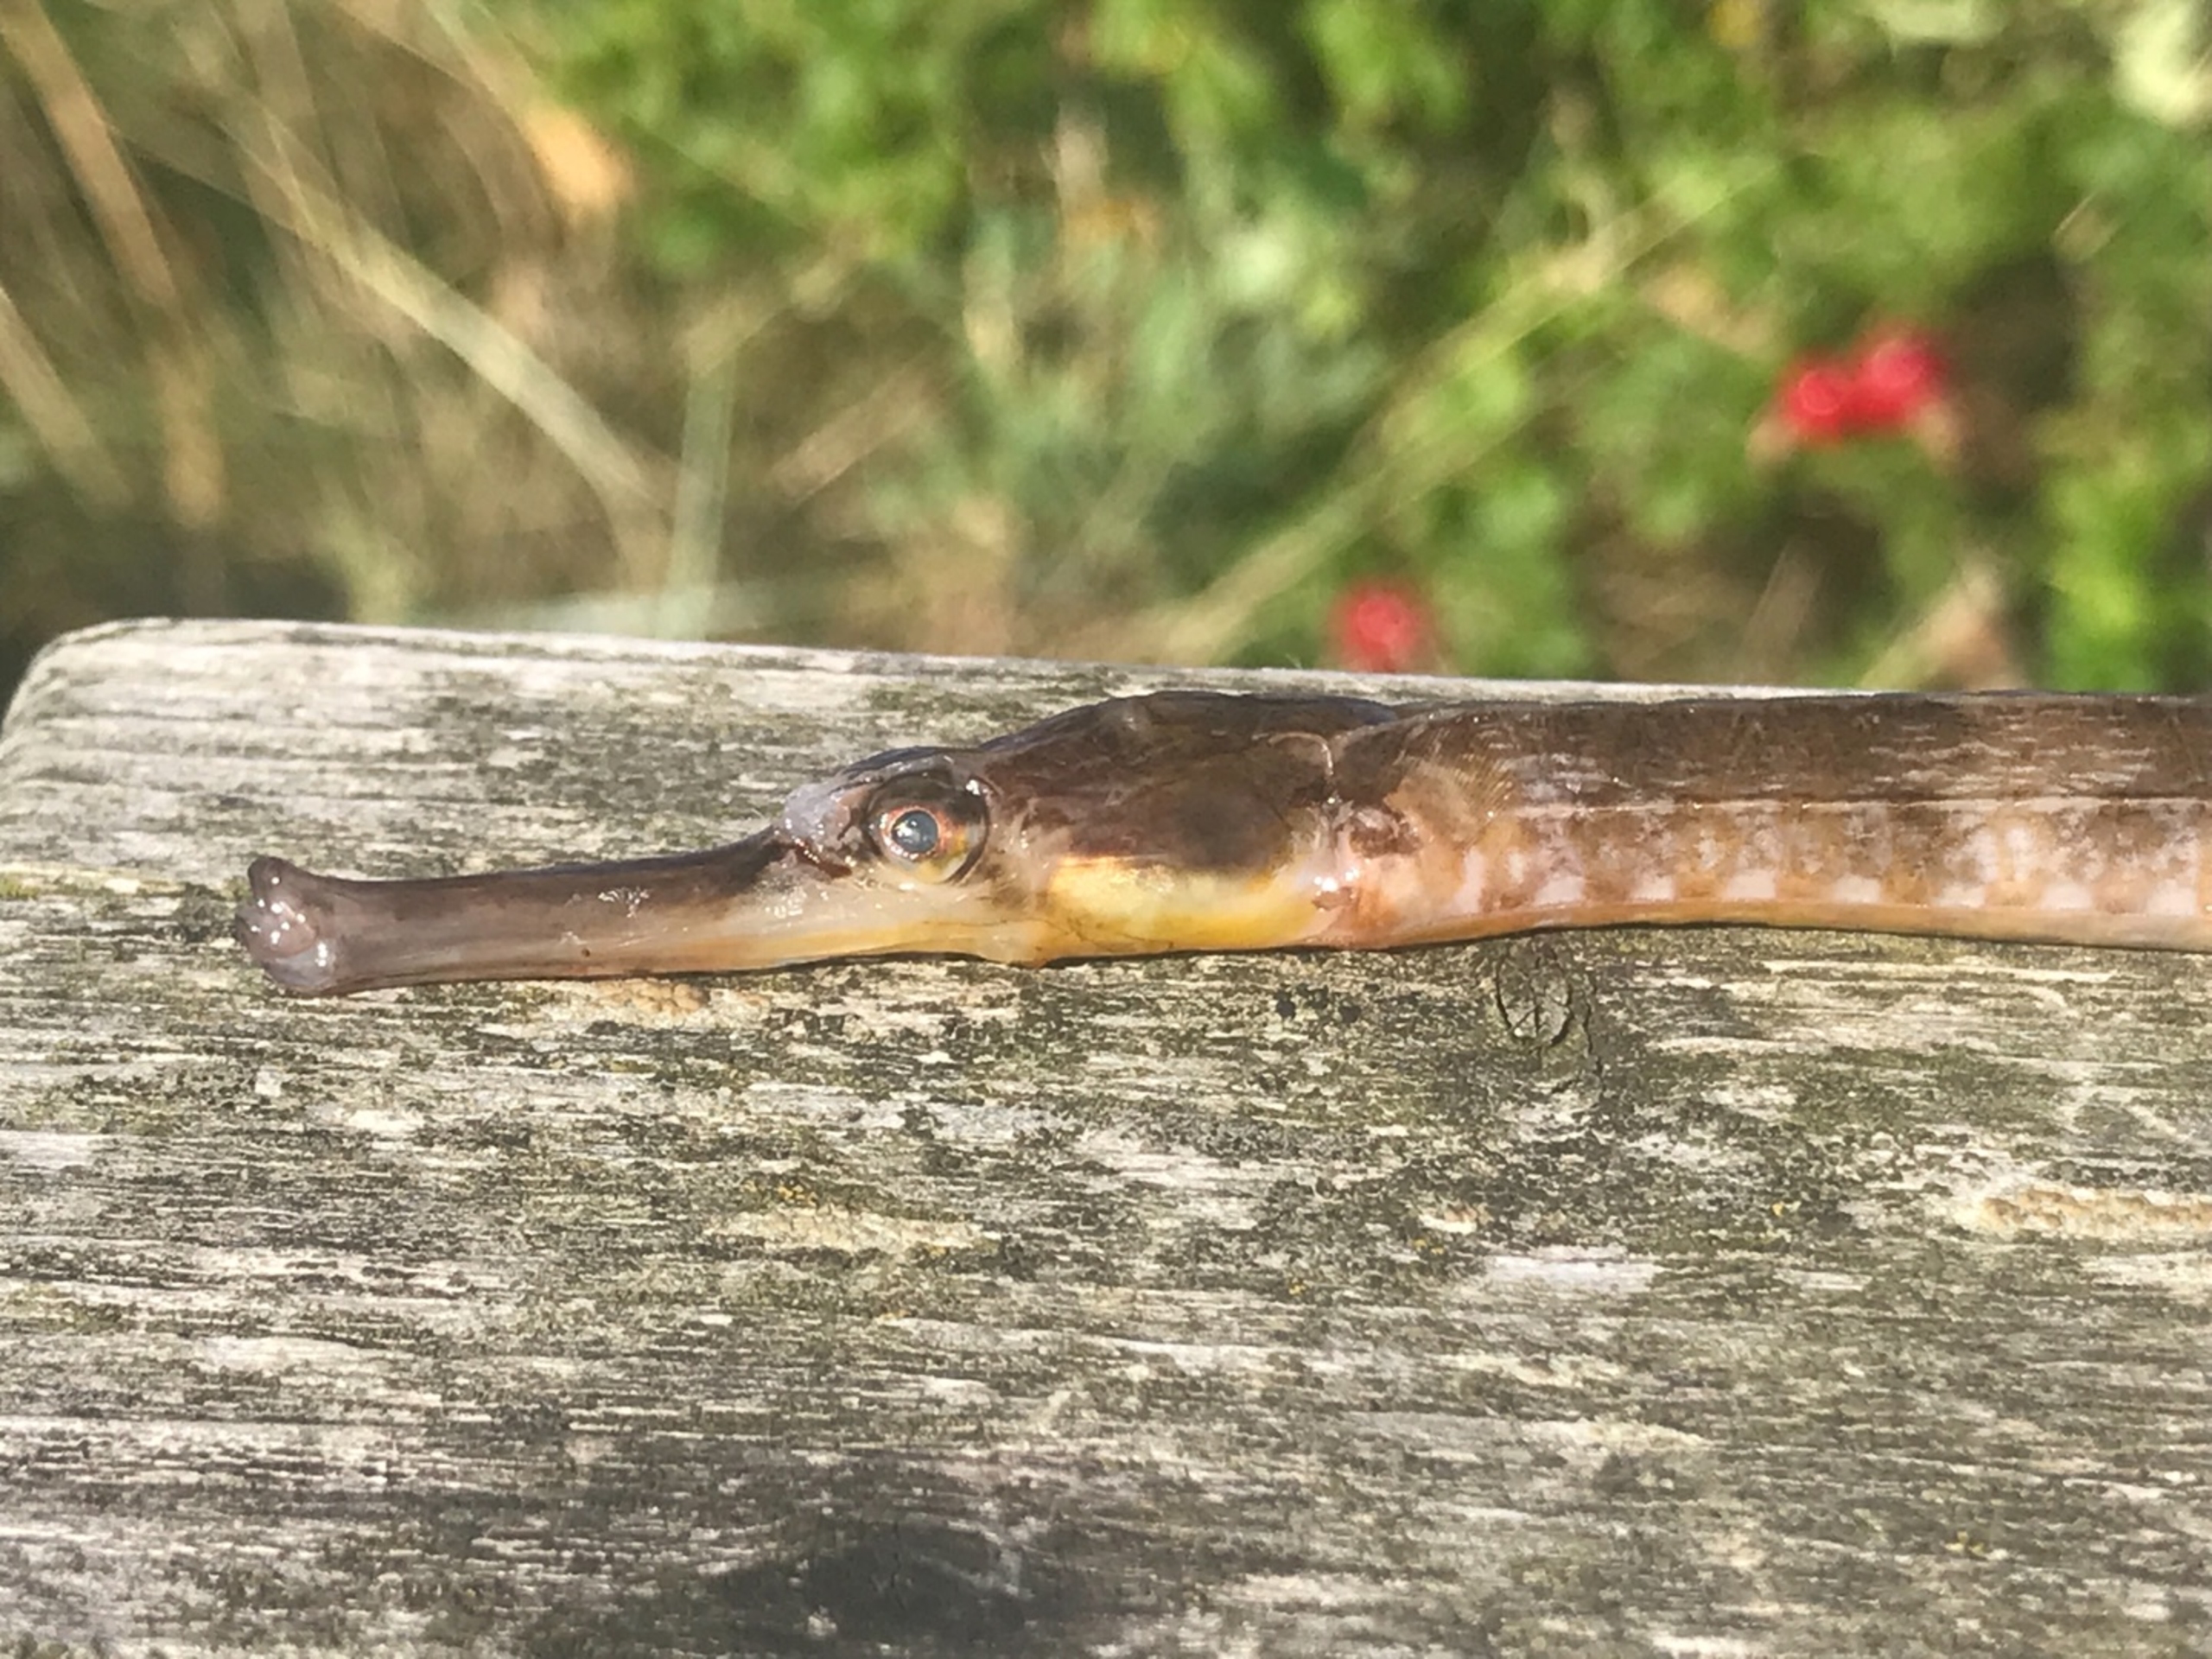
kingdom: Animalia
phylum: Chordata
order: Syngnathiformes
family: Syngnathidae
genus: Syngnathus
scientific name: Syngnathus acus
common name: Stor tangnål
